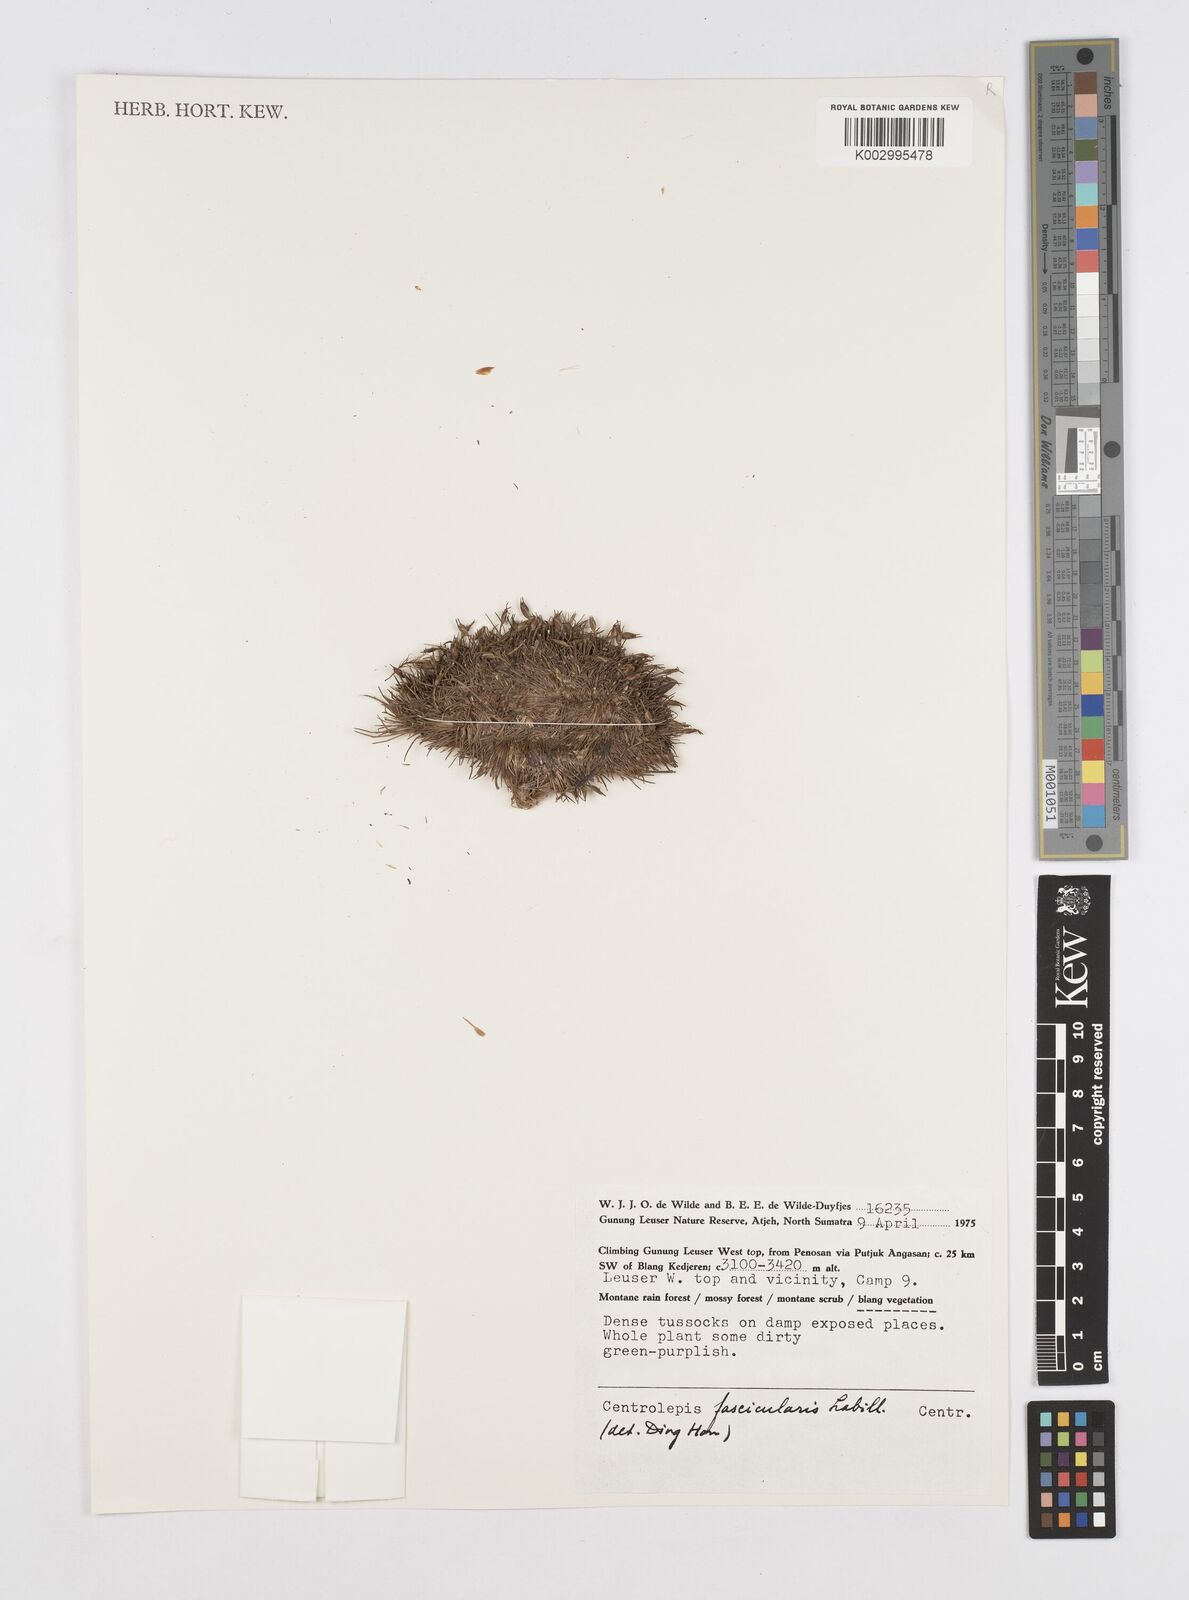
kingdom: Plantae
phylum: Tracheophyta
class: Liliopsida
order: Poales
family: Restionaceae
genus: Centrolepis
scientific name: Centrolepis fascicularis
